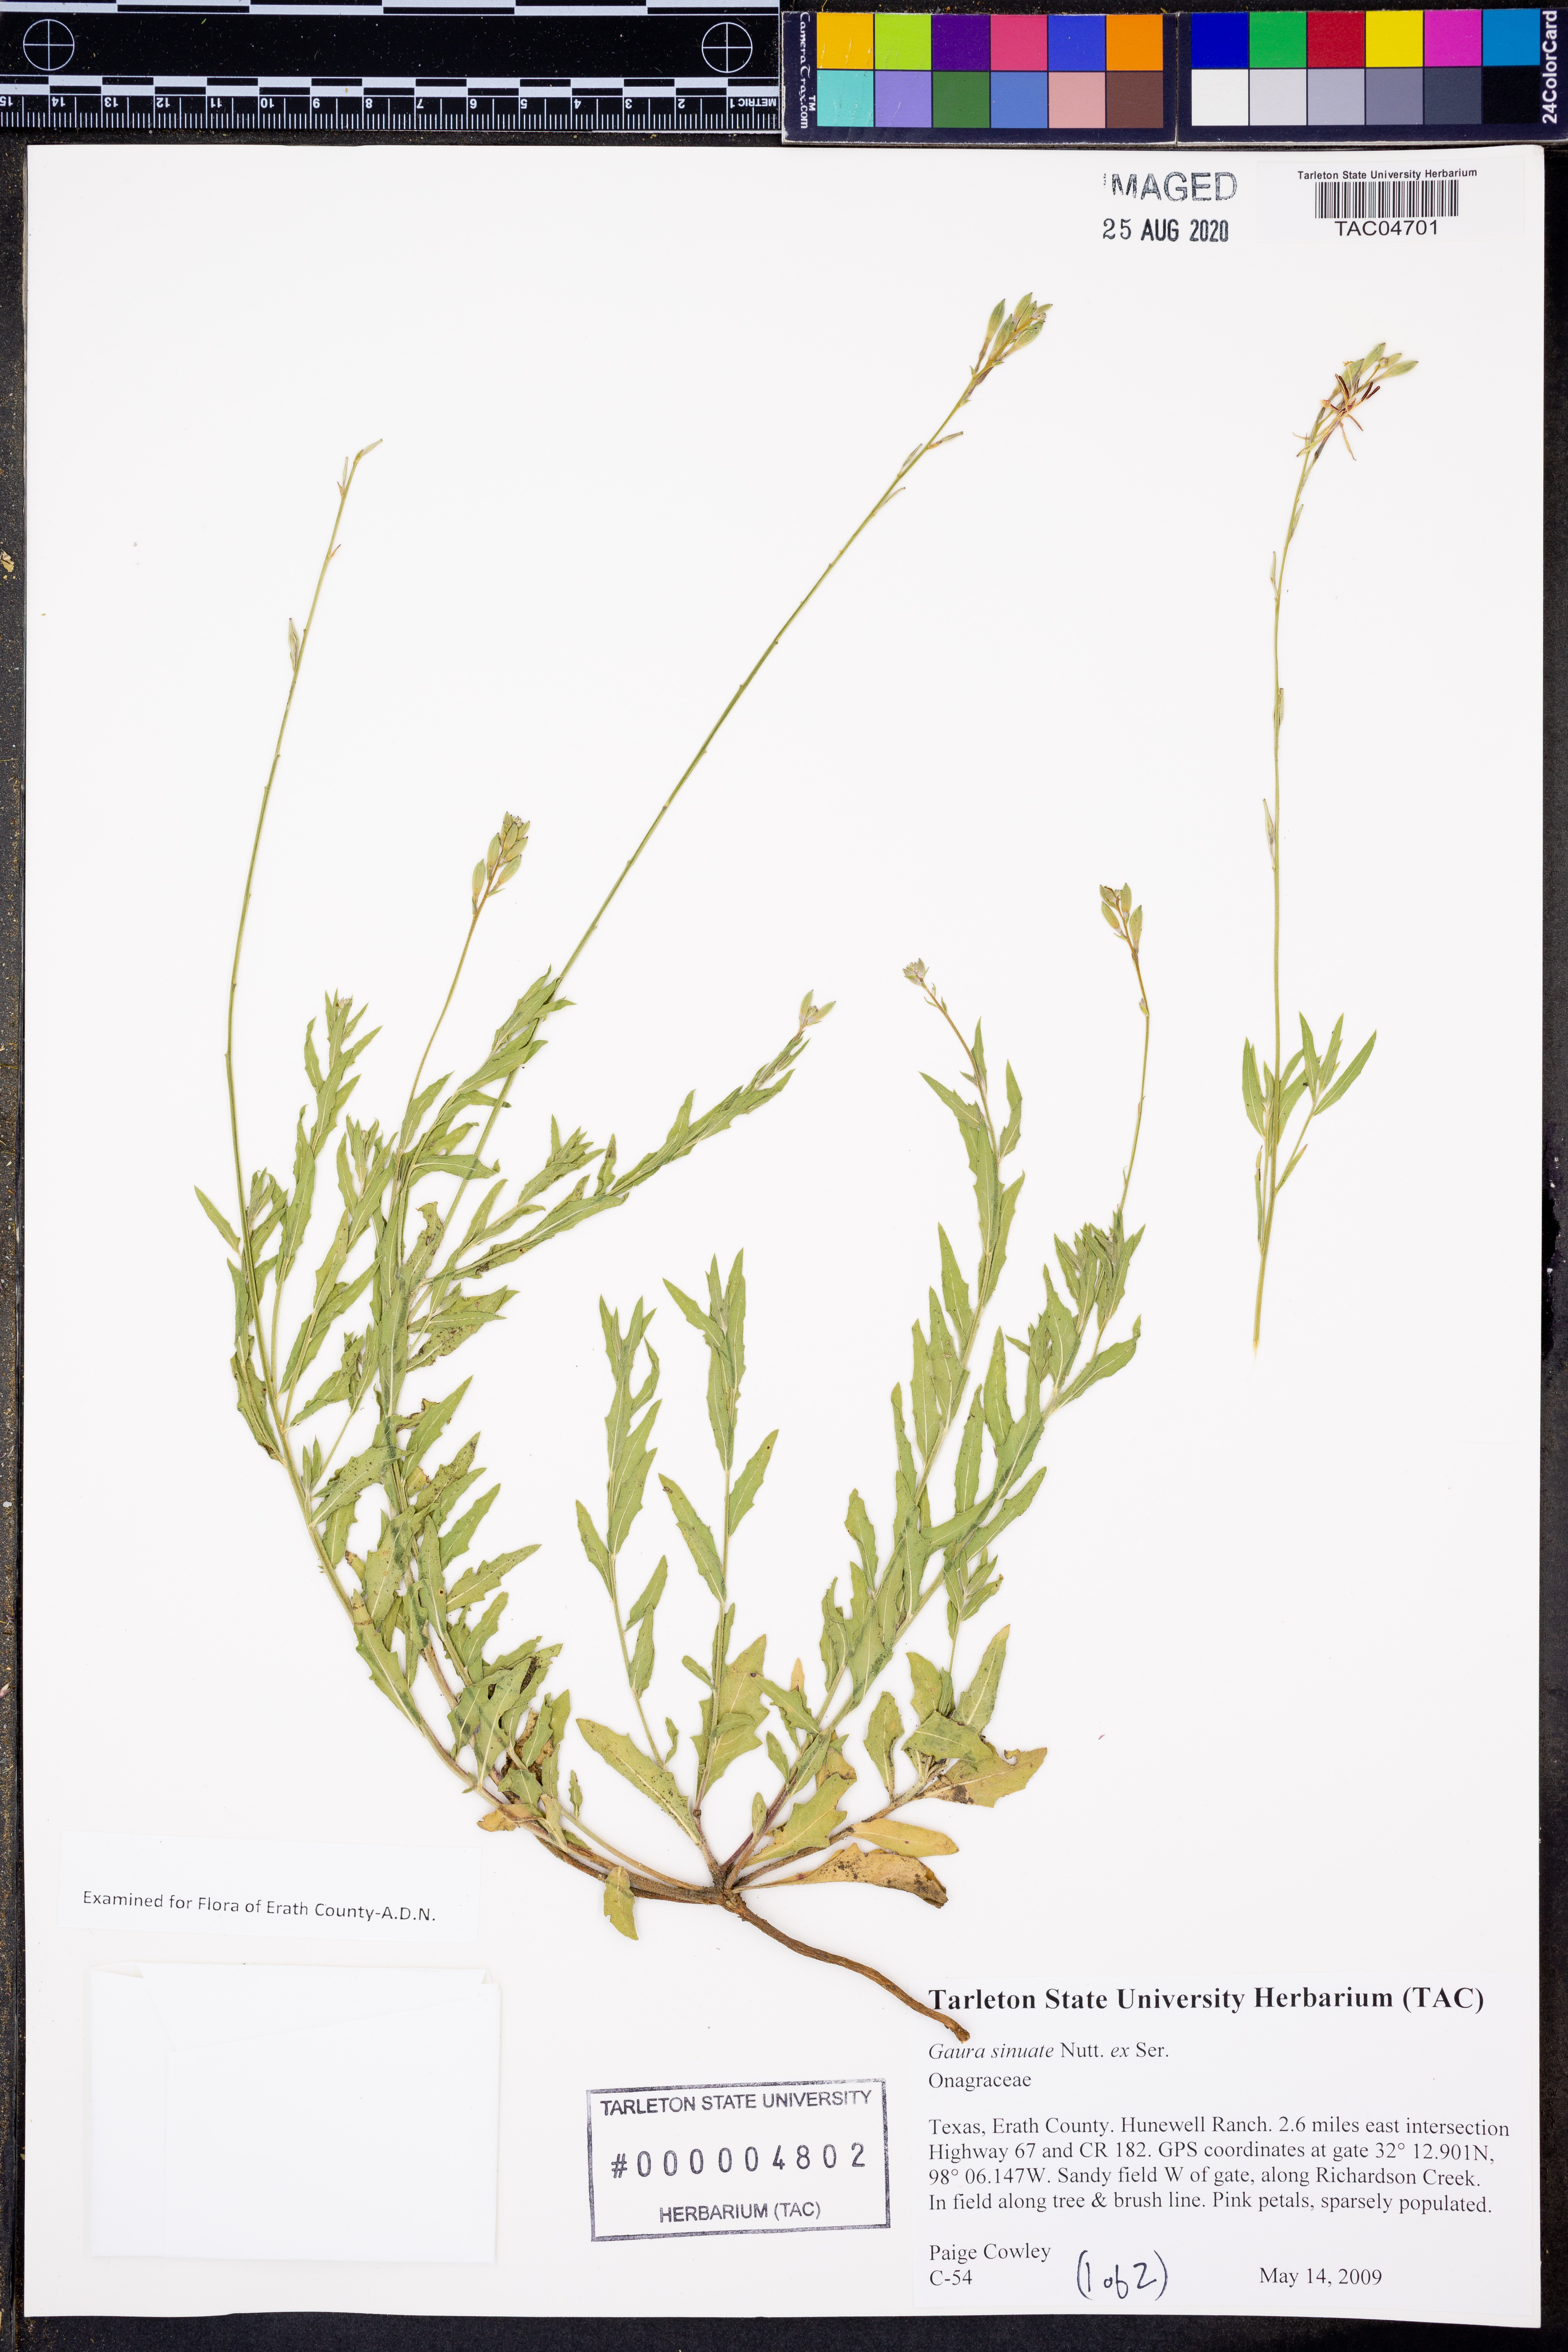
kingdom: Plantae
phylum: Tracheophyta
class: Magnoliopsida
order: Myrtales
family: Onagraceae
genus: Oenothera
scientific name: Oenothera sinuosa
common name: Wavyleaf beeblossom
